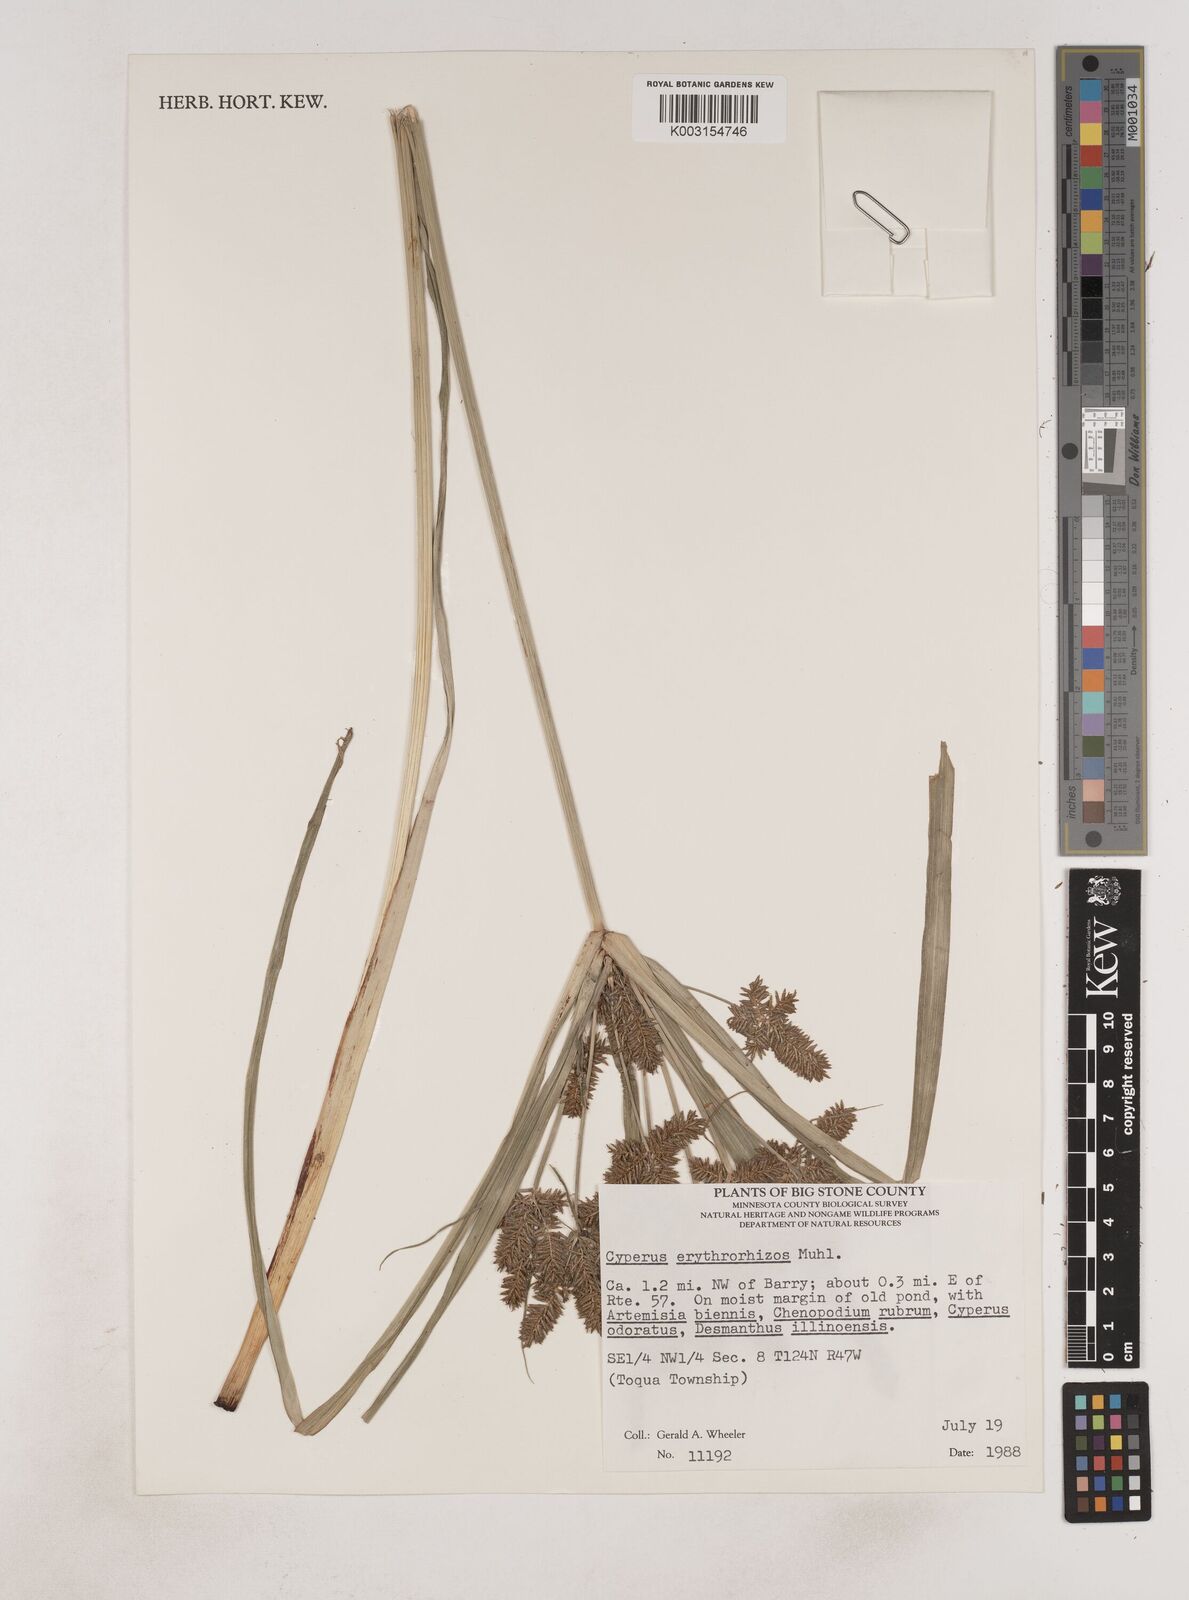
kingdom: Plantae
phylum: Tracheophyta
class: Liliopsida
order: Poales
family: Cyperaceae
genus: Cyperus
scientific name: Cyperus erythrorhizos
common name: Red-root flat sedge
